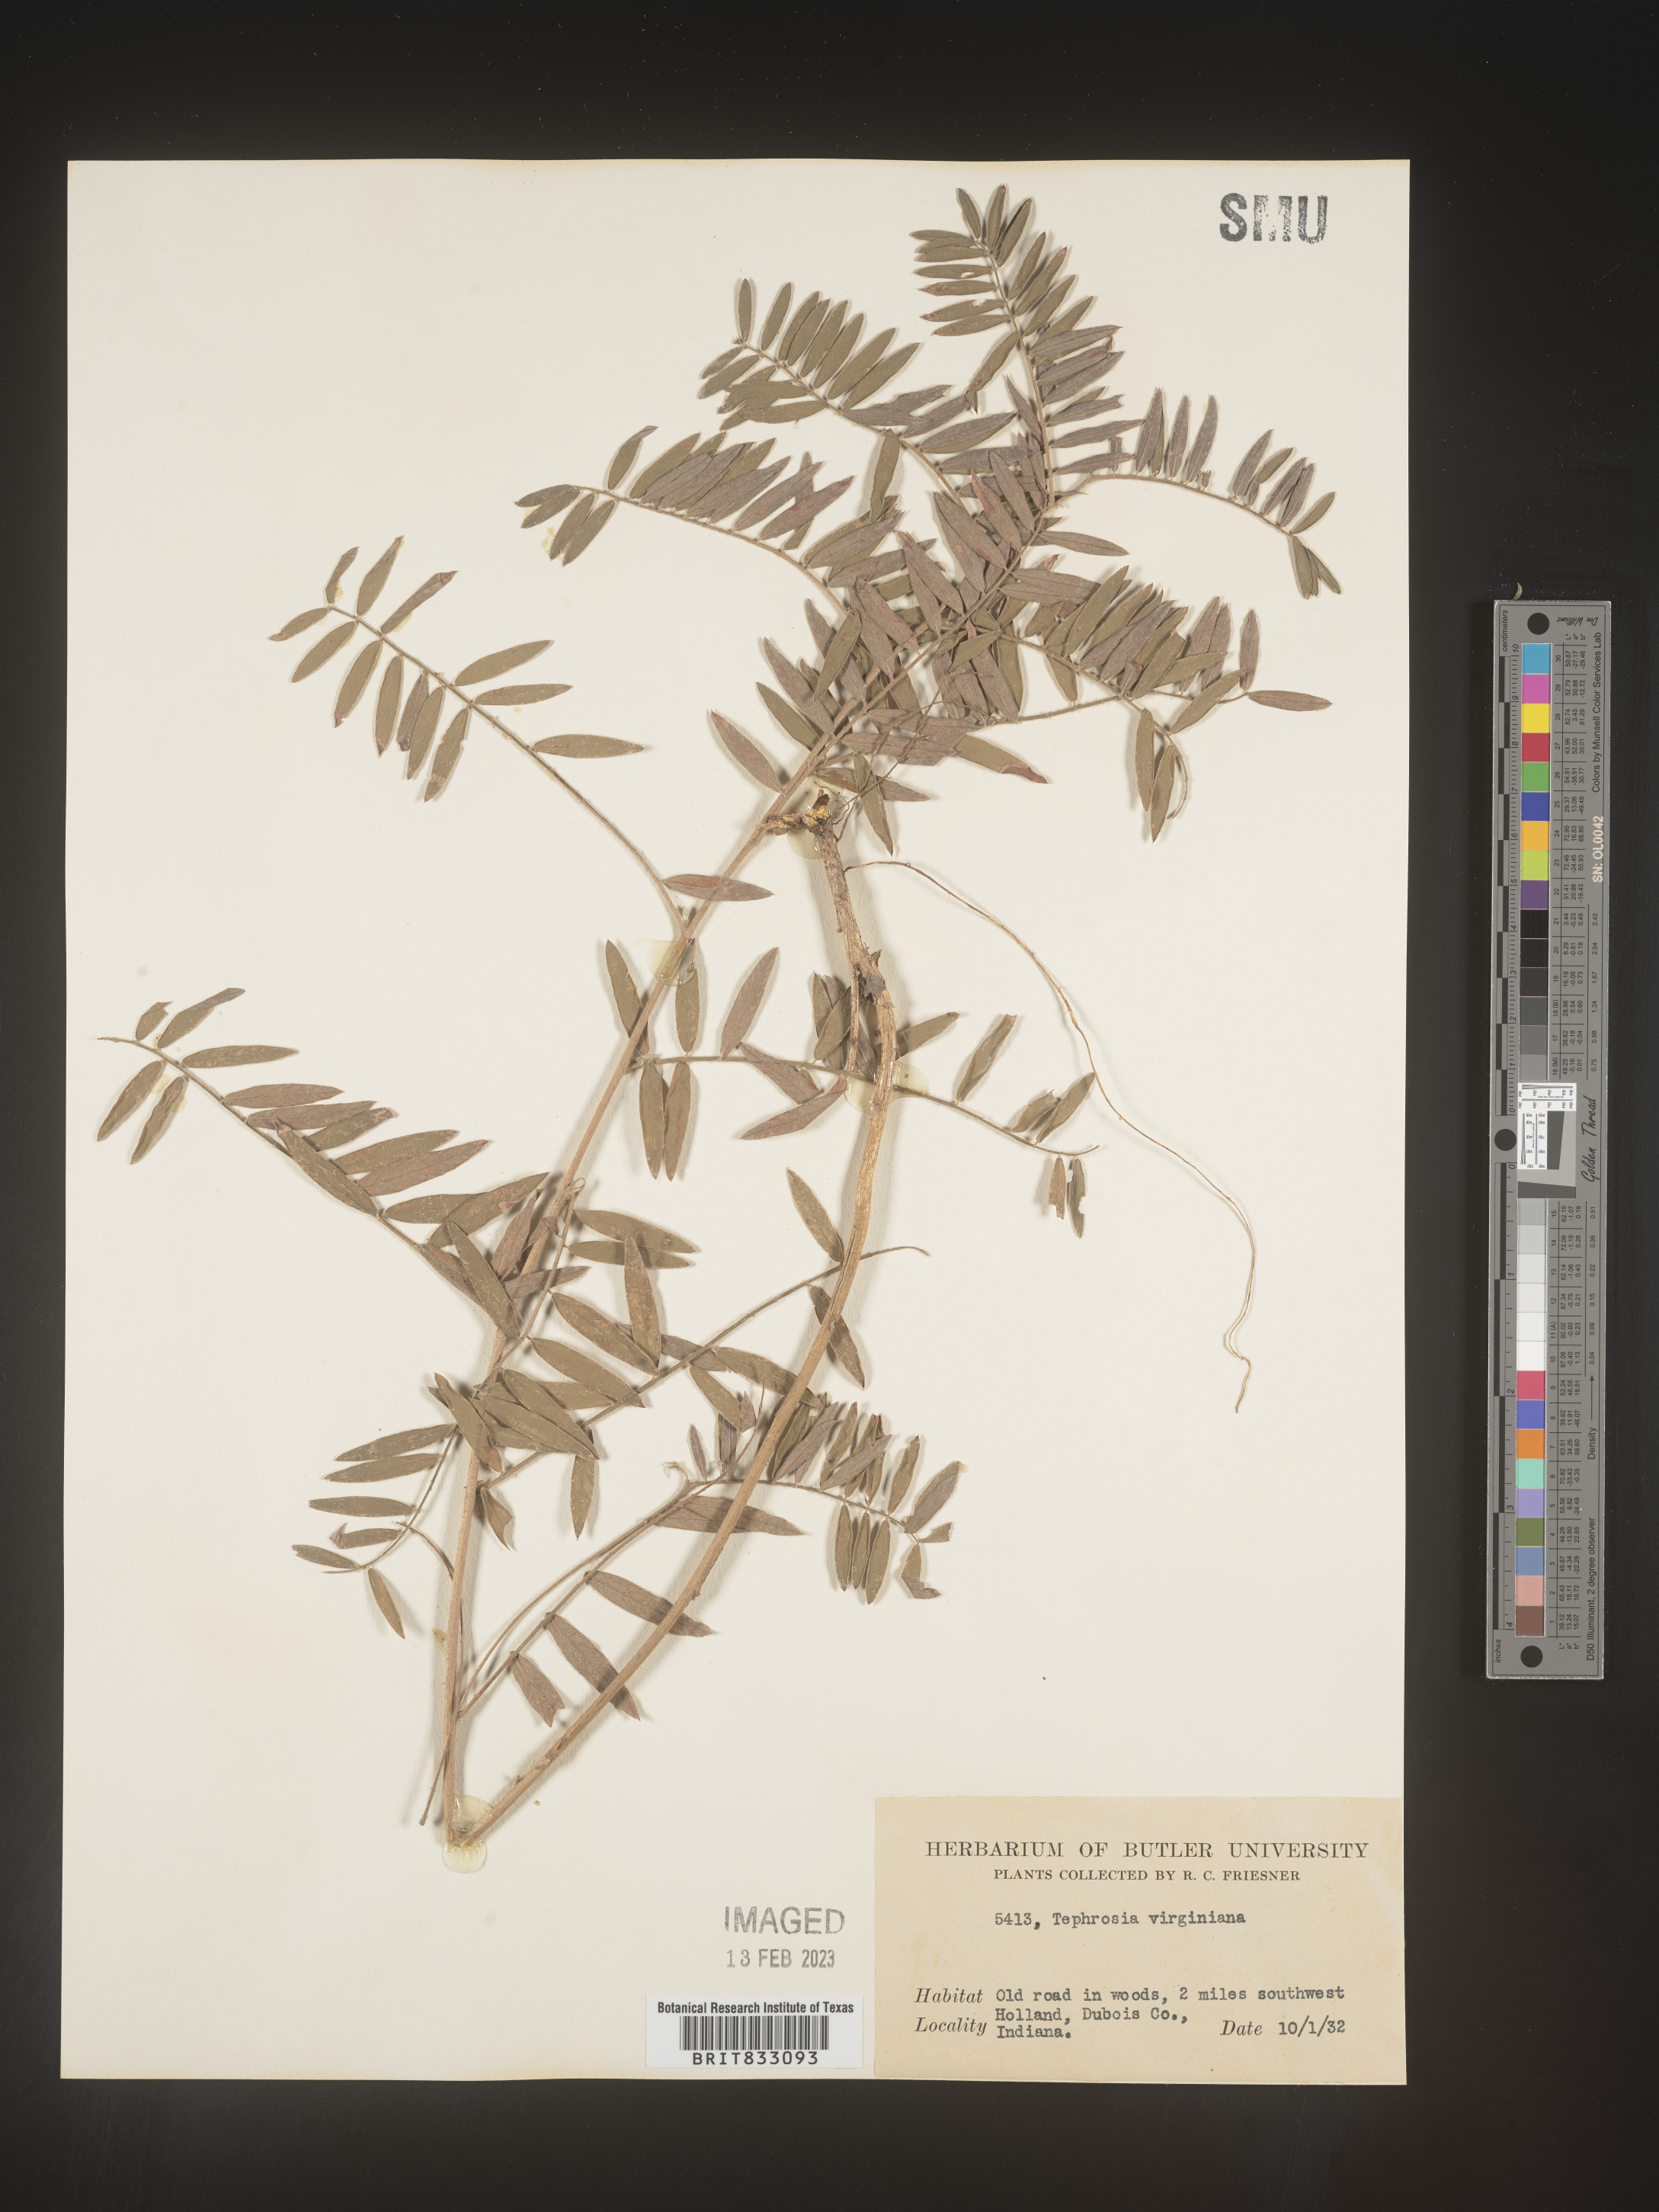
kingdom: Plantae
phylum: Tracheophyta
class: Magnoliopsida
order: Fabales
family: Fabaceae
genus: Tephrosia
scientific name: Tephrosia virginiana
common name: Rabbit-pea
